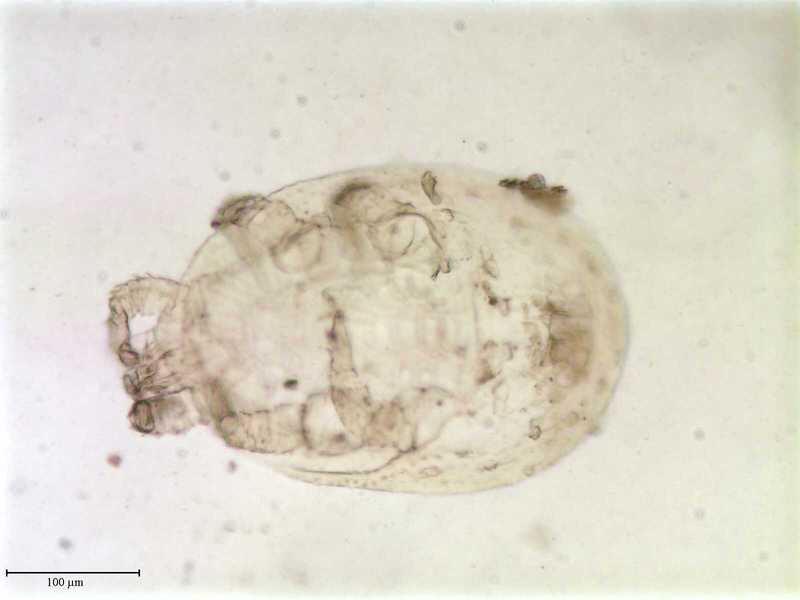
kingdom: Animalia
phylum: Arthropoda
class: Arachnida
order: Mesostigmata
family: Uropodidae
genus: Uroobovella
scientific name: Uroobovella marginata
